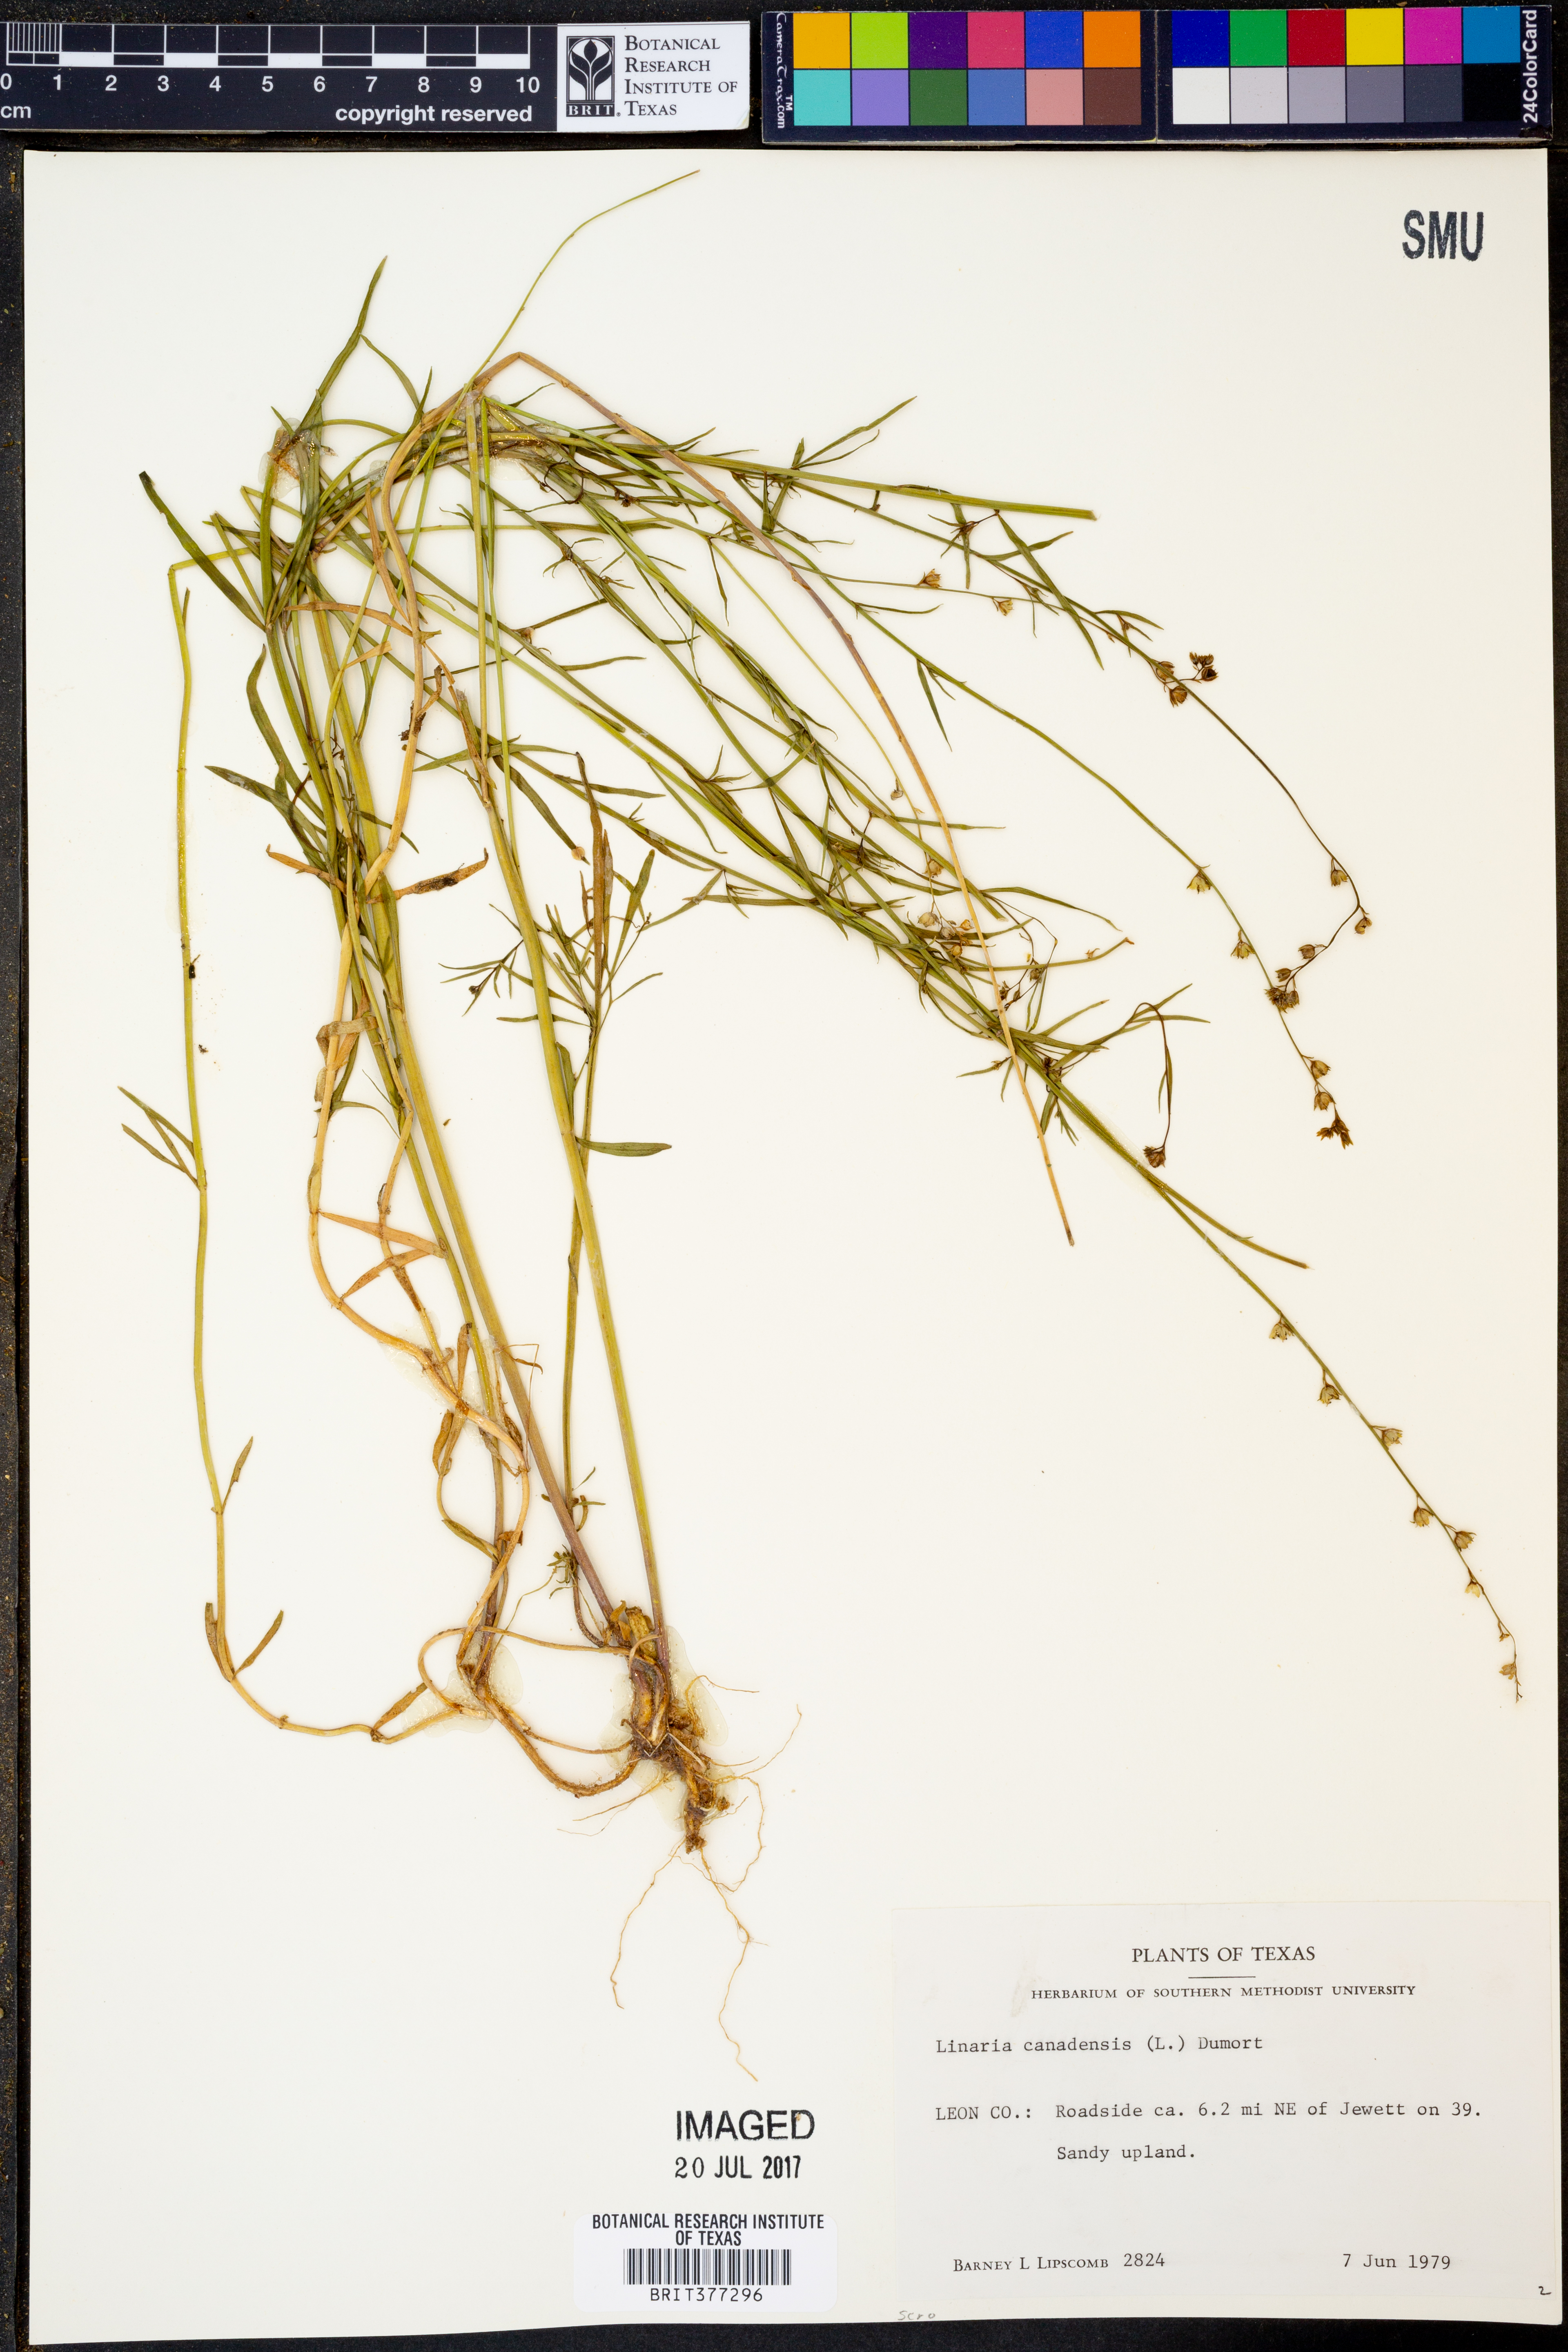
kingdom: Plantae
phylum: Tracheophyta
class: Magnoliopsida
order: Lamiales
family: Plantaginaceae
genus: Nuttallanthus
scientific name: Nuttallanthus canadensis
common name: Blue toadflax
